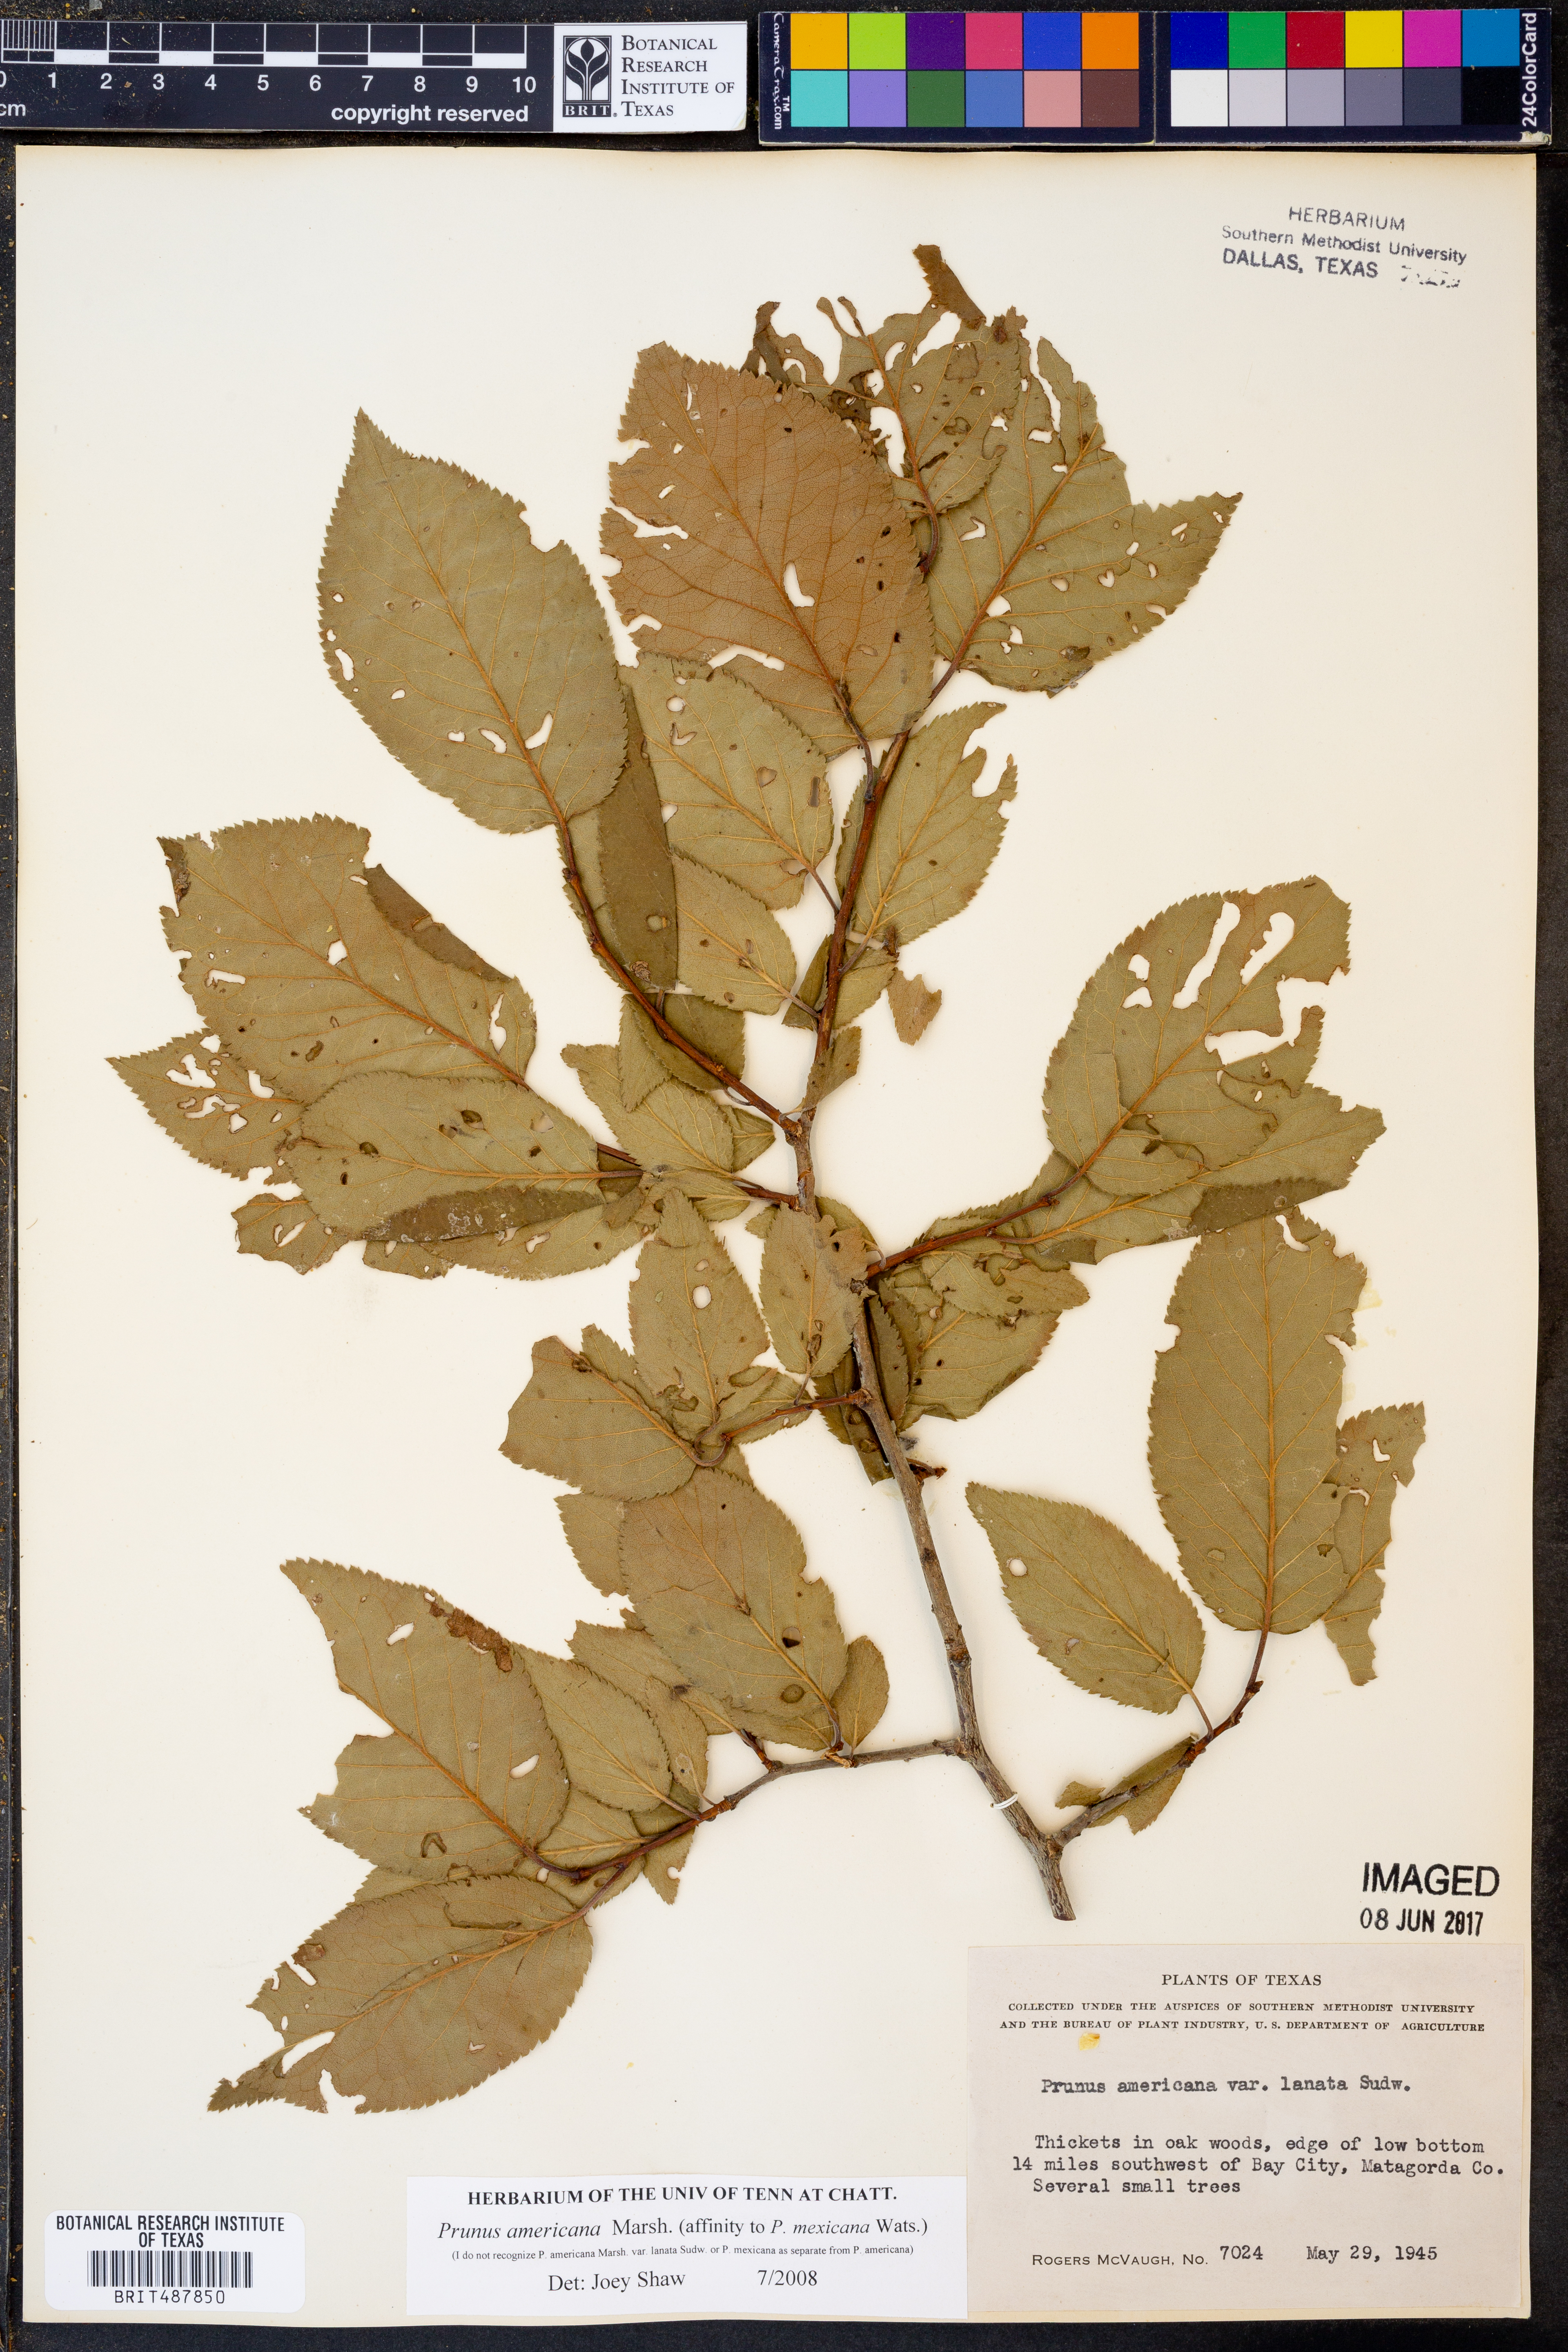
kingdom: Plantae
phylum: Tracheophyta
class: Magnoliopsida
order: Rosales
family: Rosaceae
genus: Prunus
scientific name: Prunus mexicana
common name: Mexican plum
